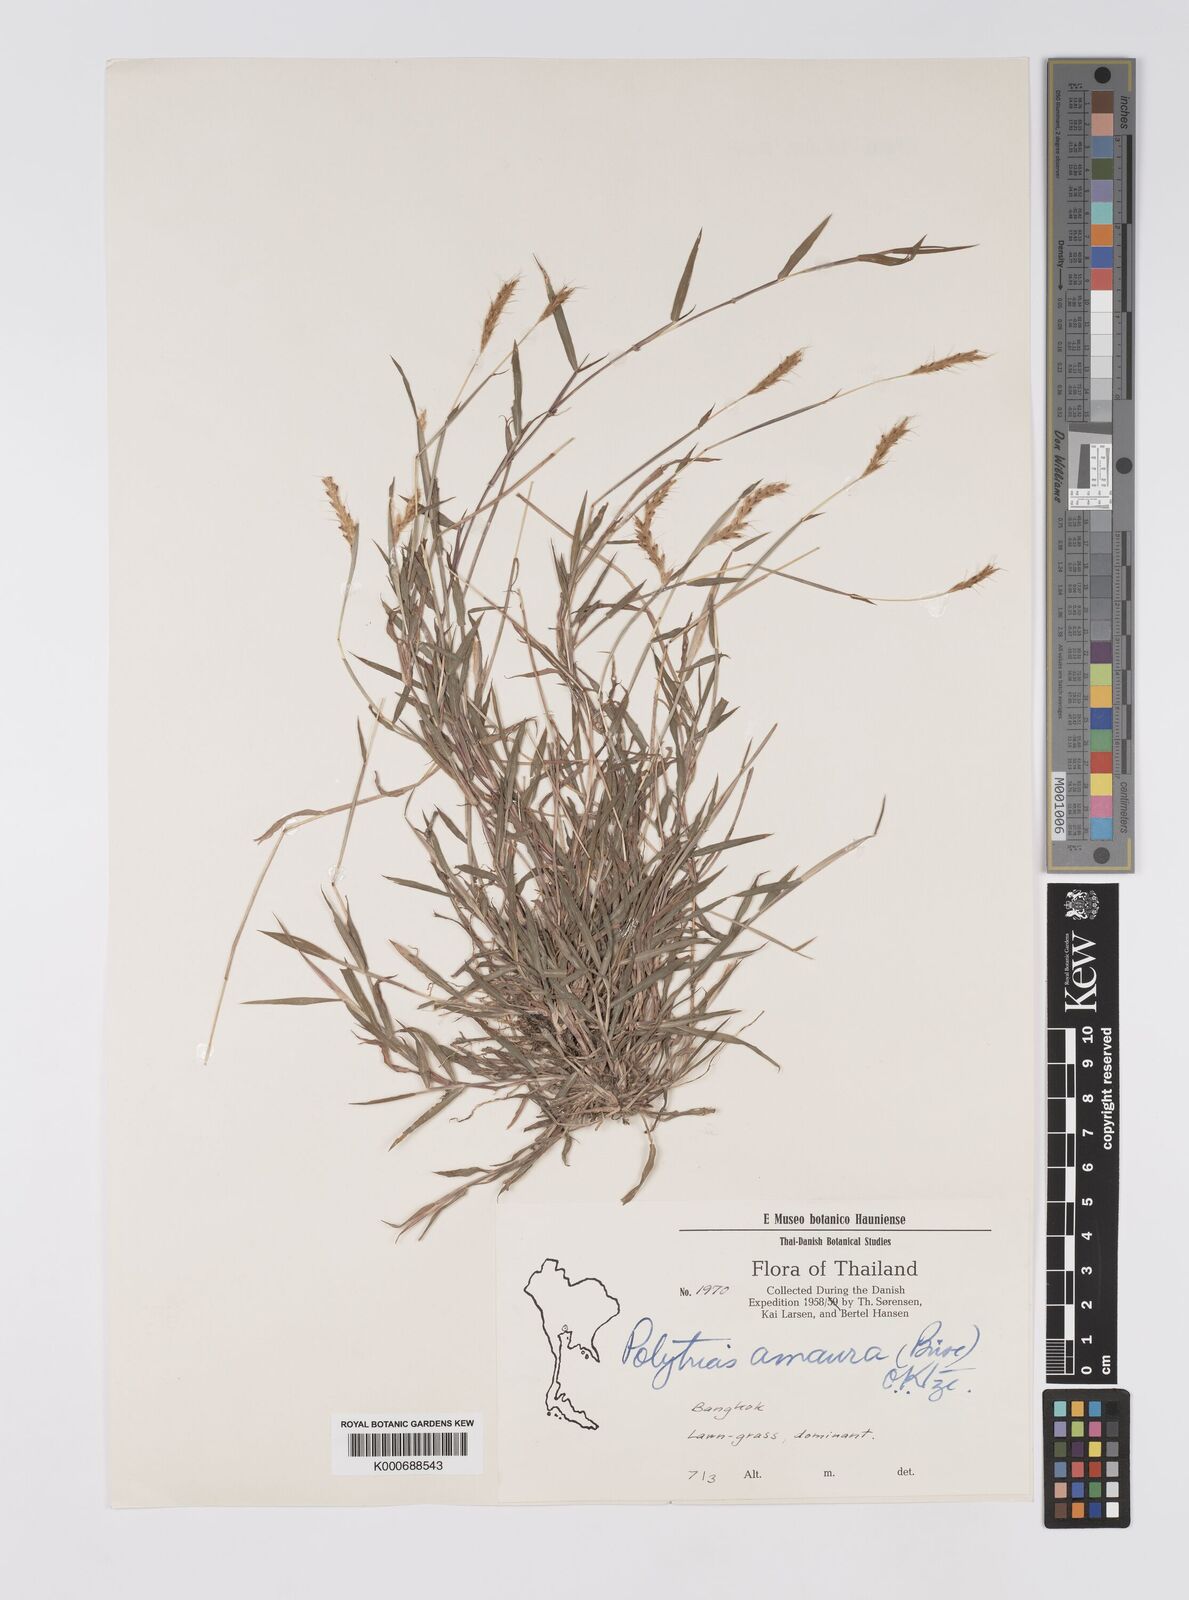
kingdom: Plantae
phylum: Tracheophyta
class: Liliopsida
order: Poales
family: Poaceae
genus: Polytrias
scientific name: Polytrias indica
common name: Indian murainagrass
